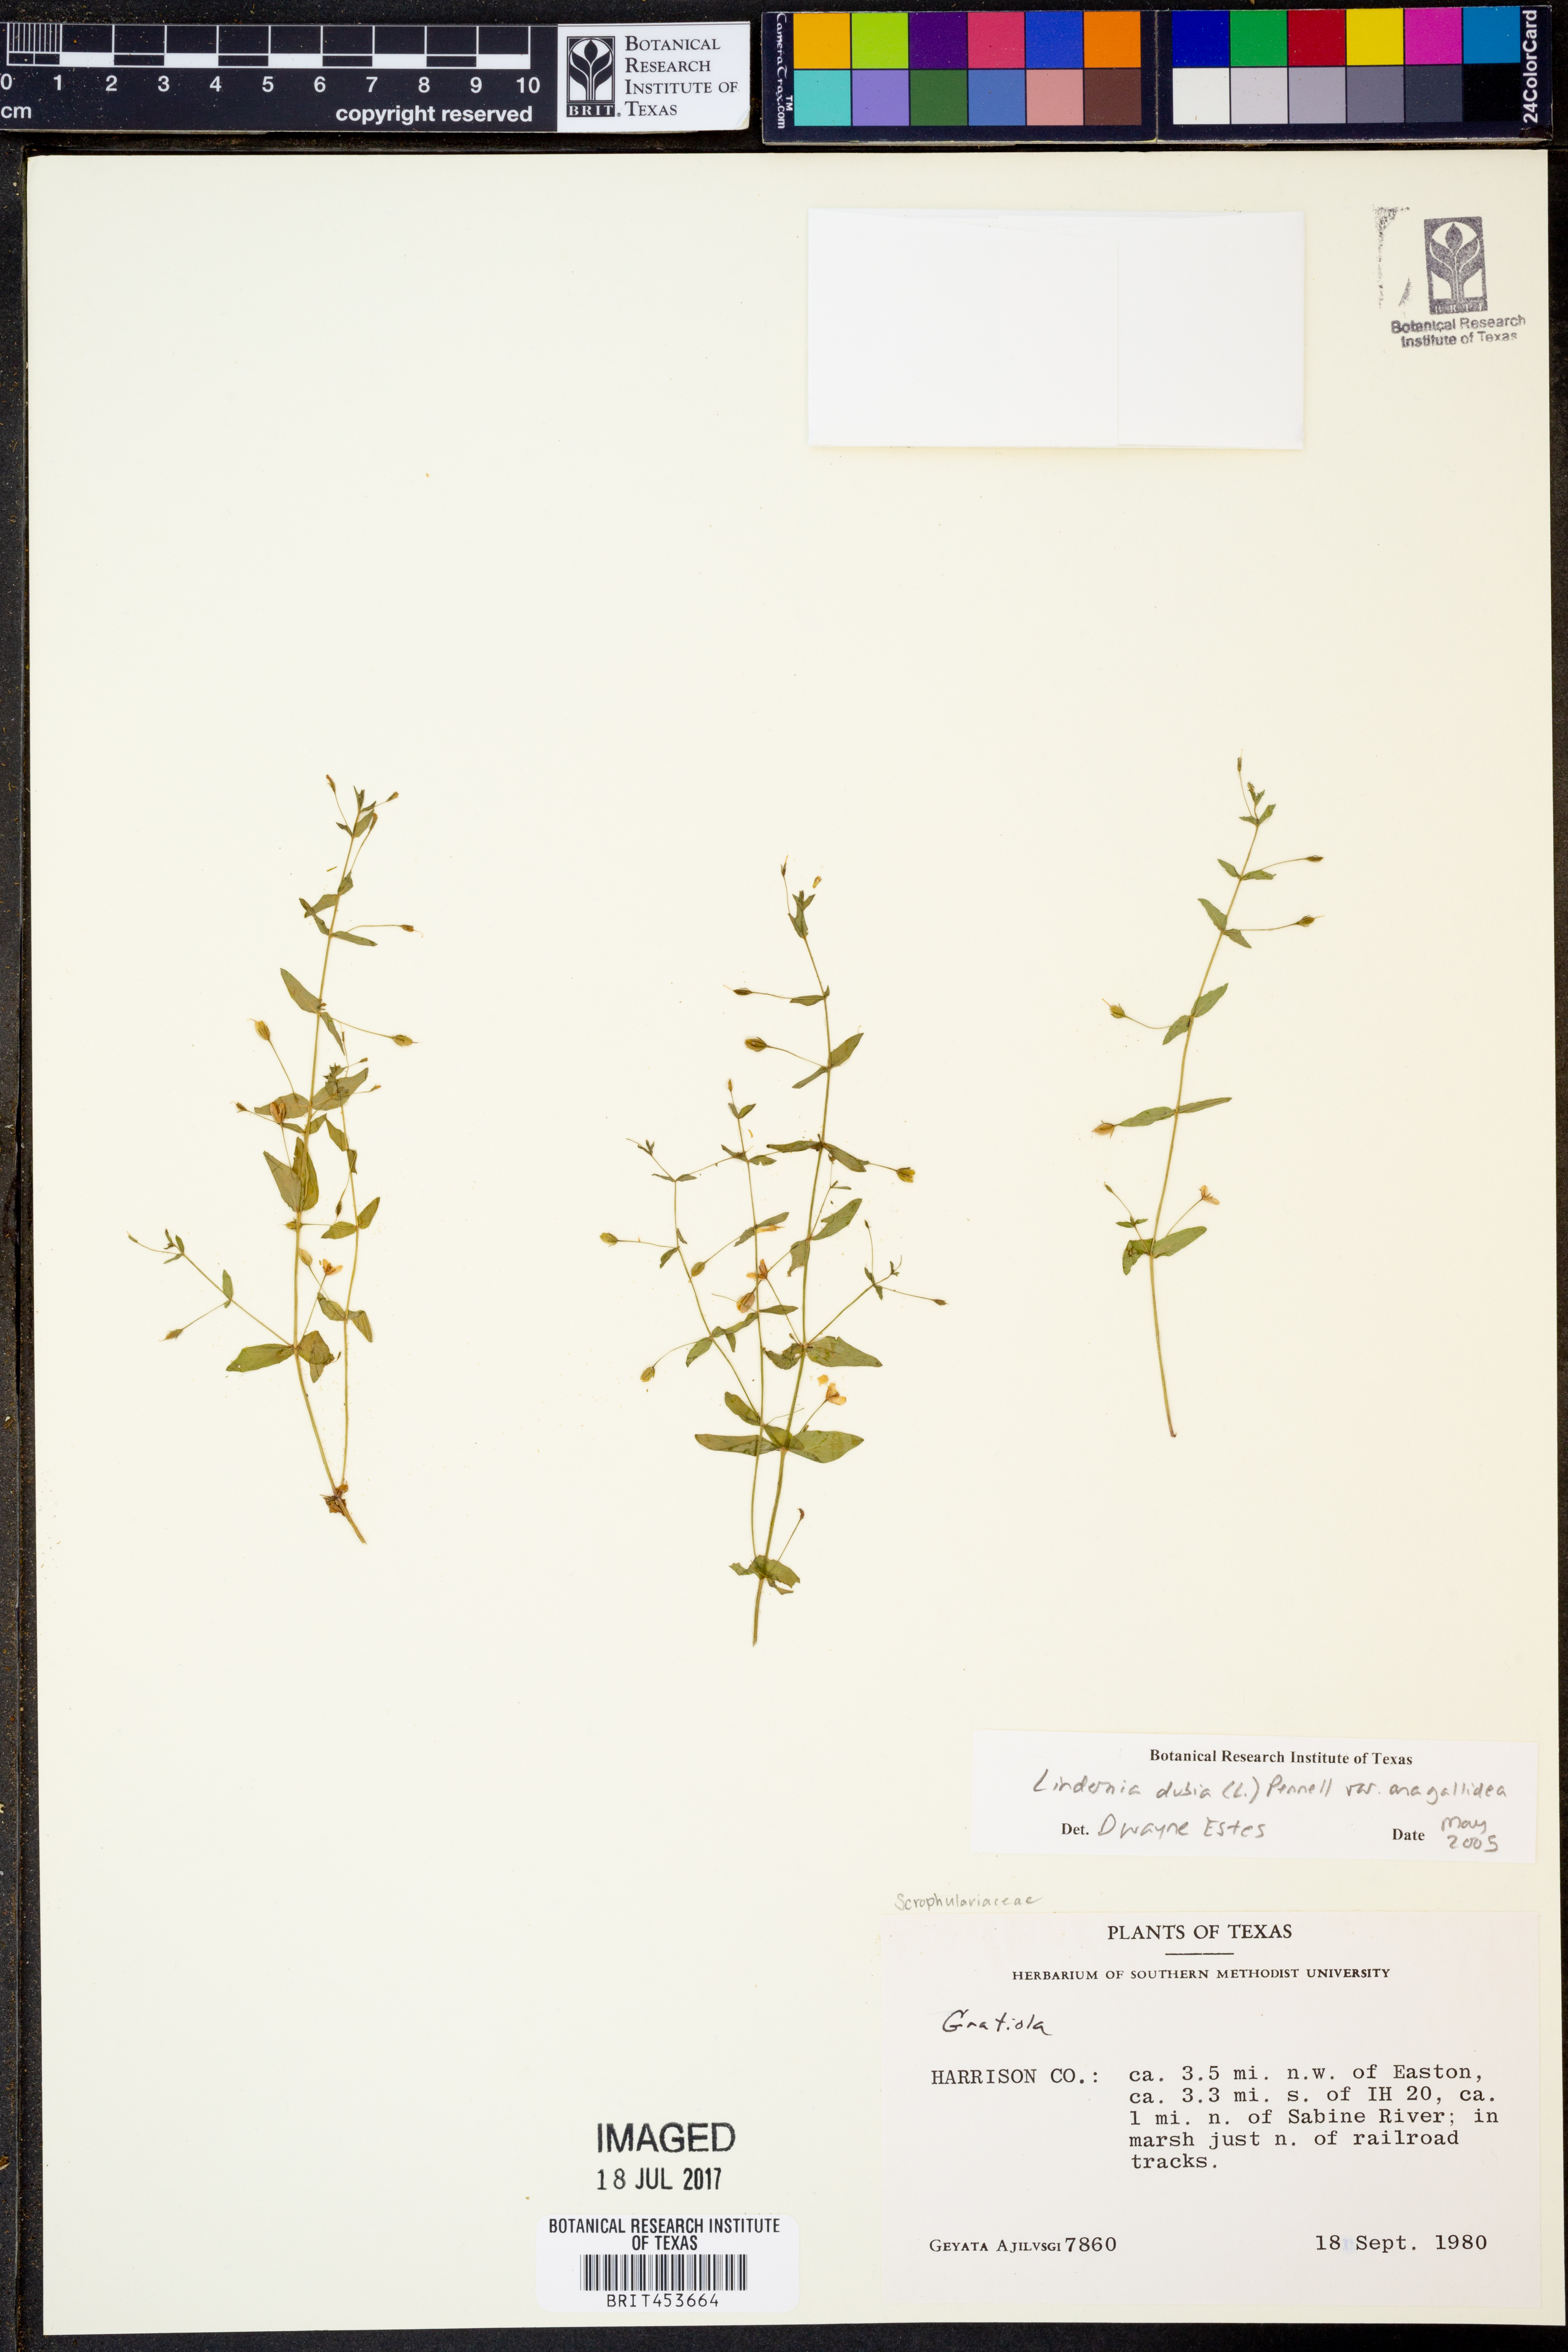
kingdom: Plantae
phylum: Tracheophyta
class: Magnoliopsida
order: Lamiales
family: Linderniaceae
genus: Lindernia
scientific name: Lindernia dubia
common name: Annual false pimpernel
